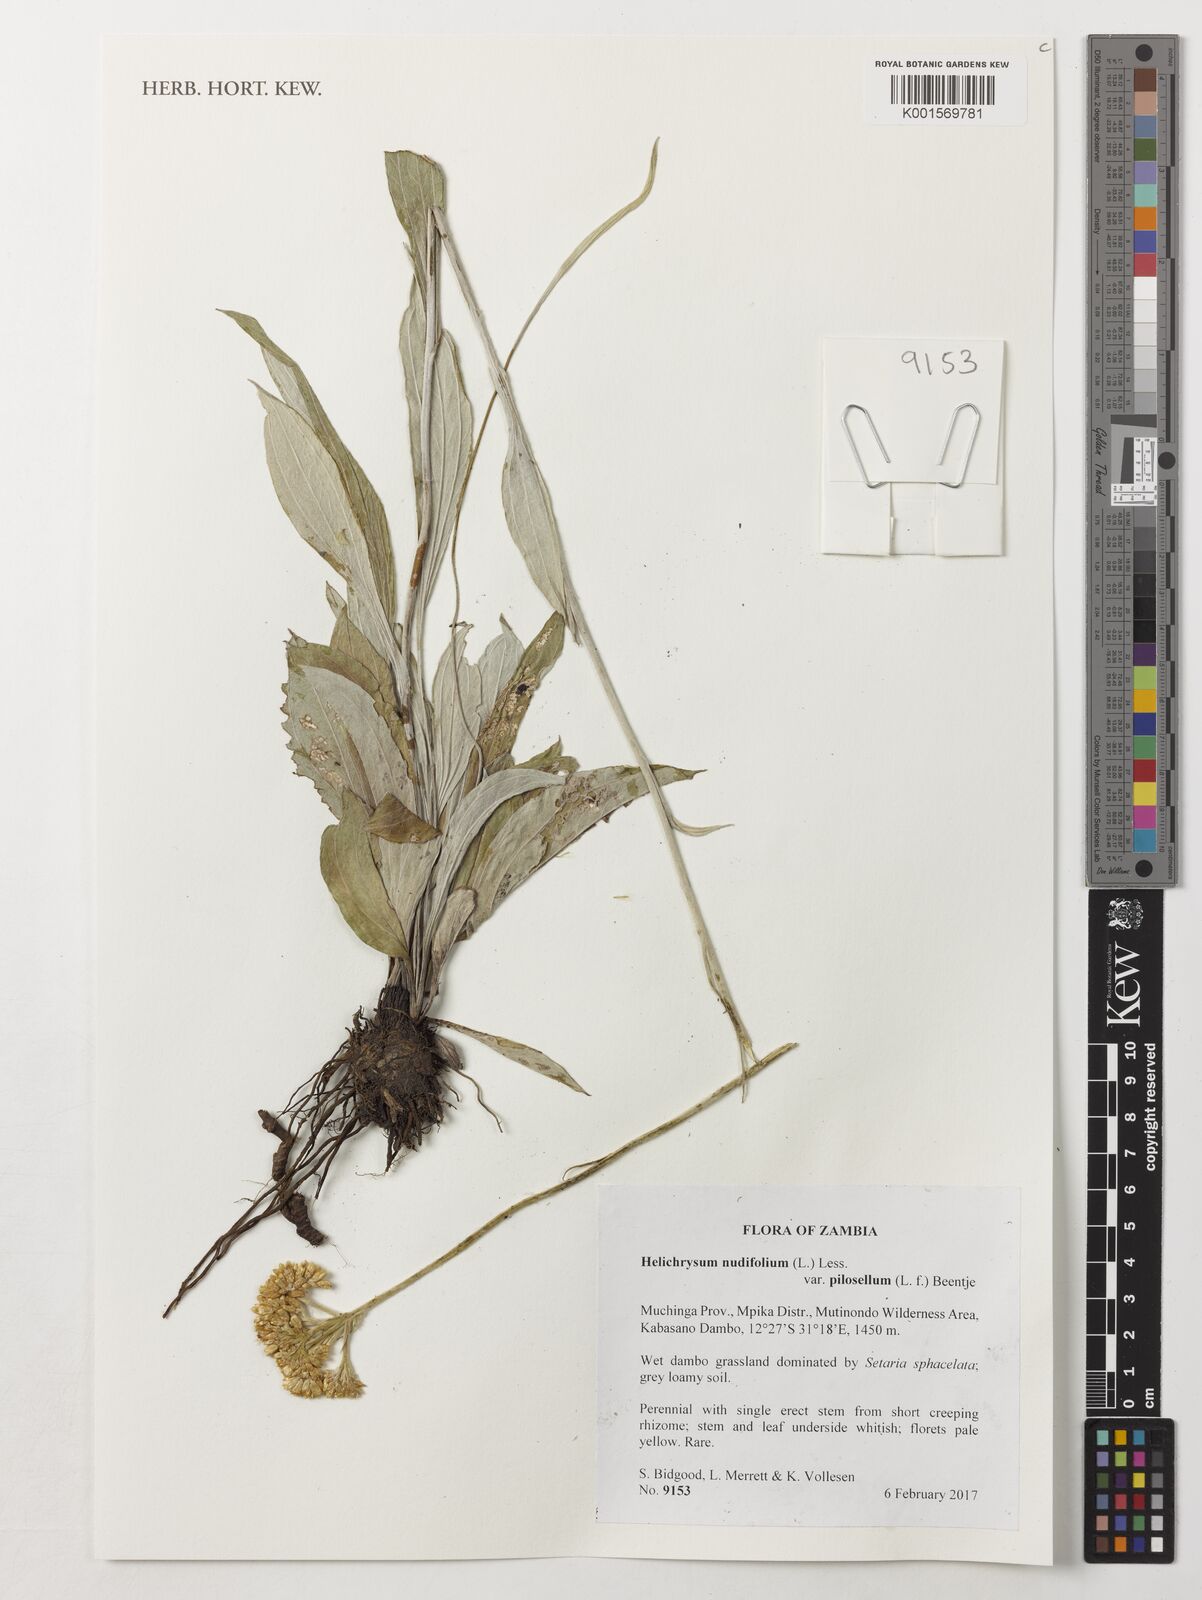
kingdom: Plantae
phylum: Tracheophyta
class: Magnoliopsida
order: Asterales
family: Asteraceae
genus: Helichrysum
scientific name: Helichrysum nudifolium
